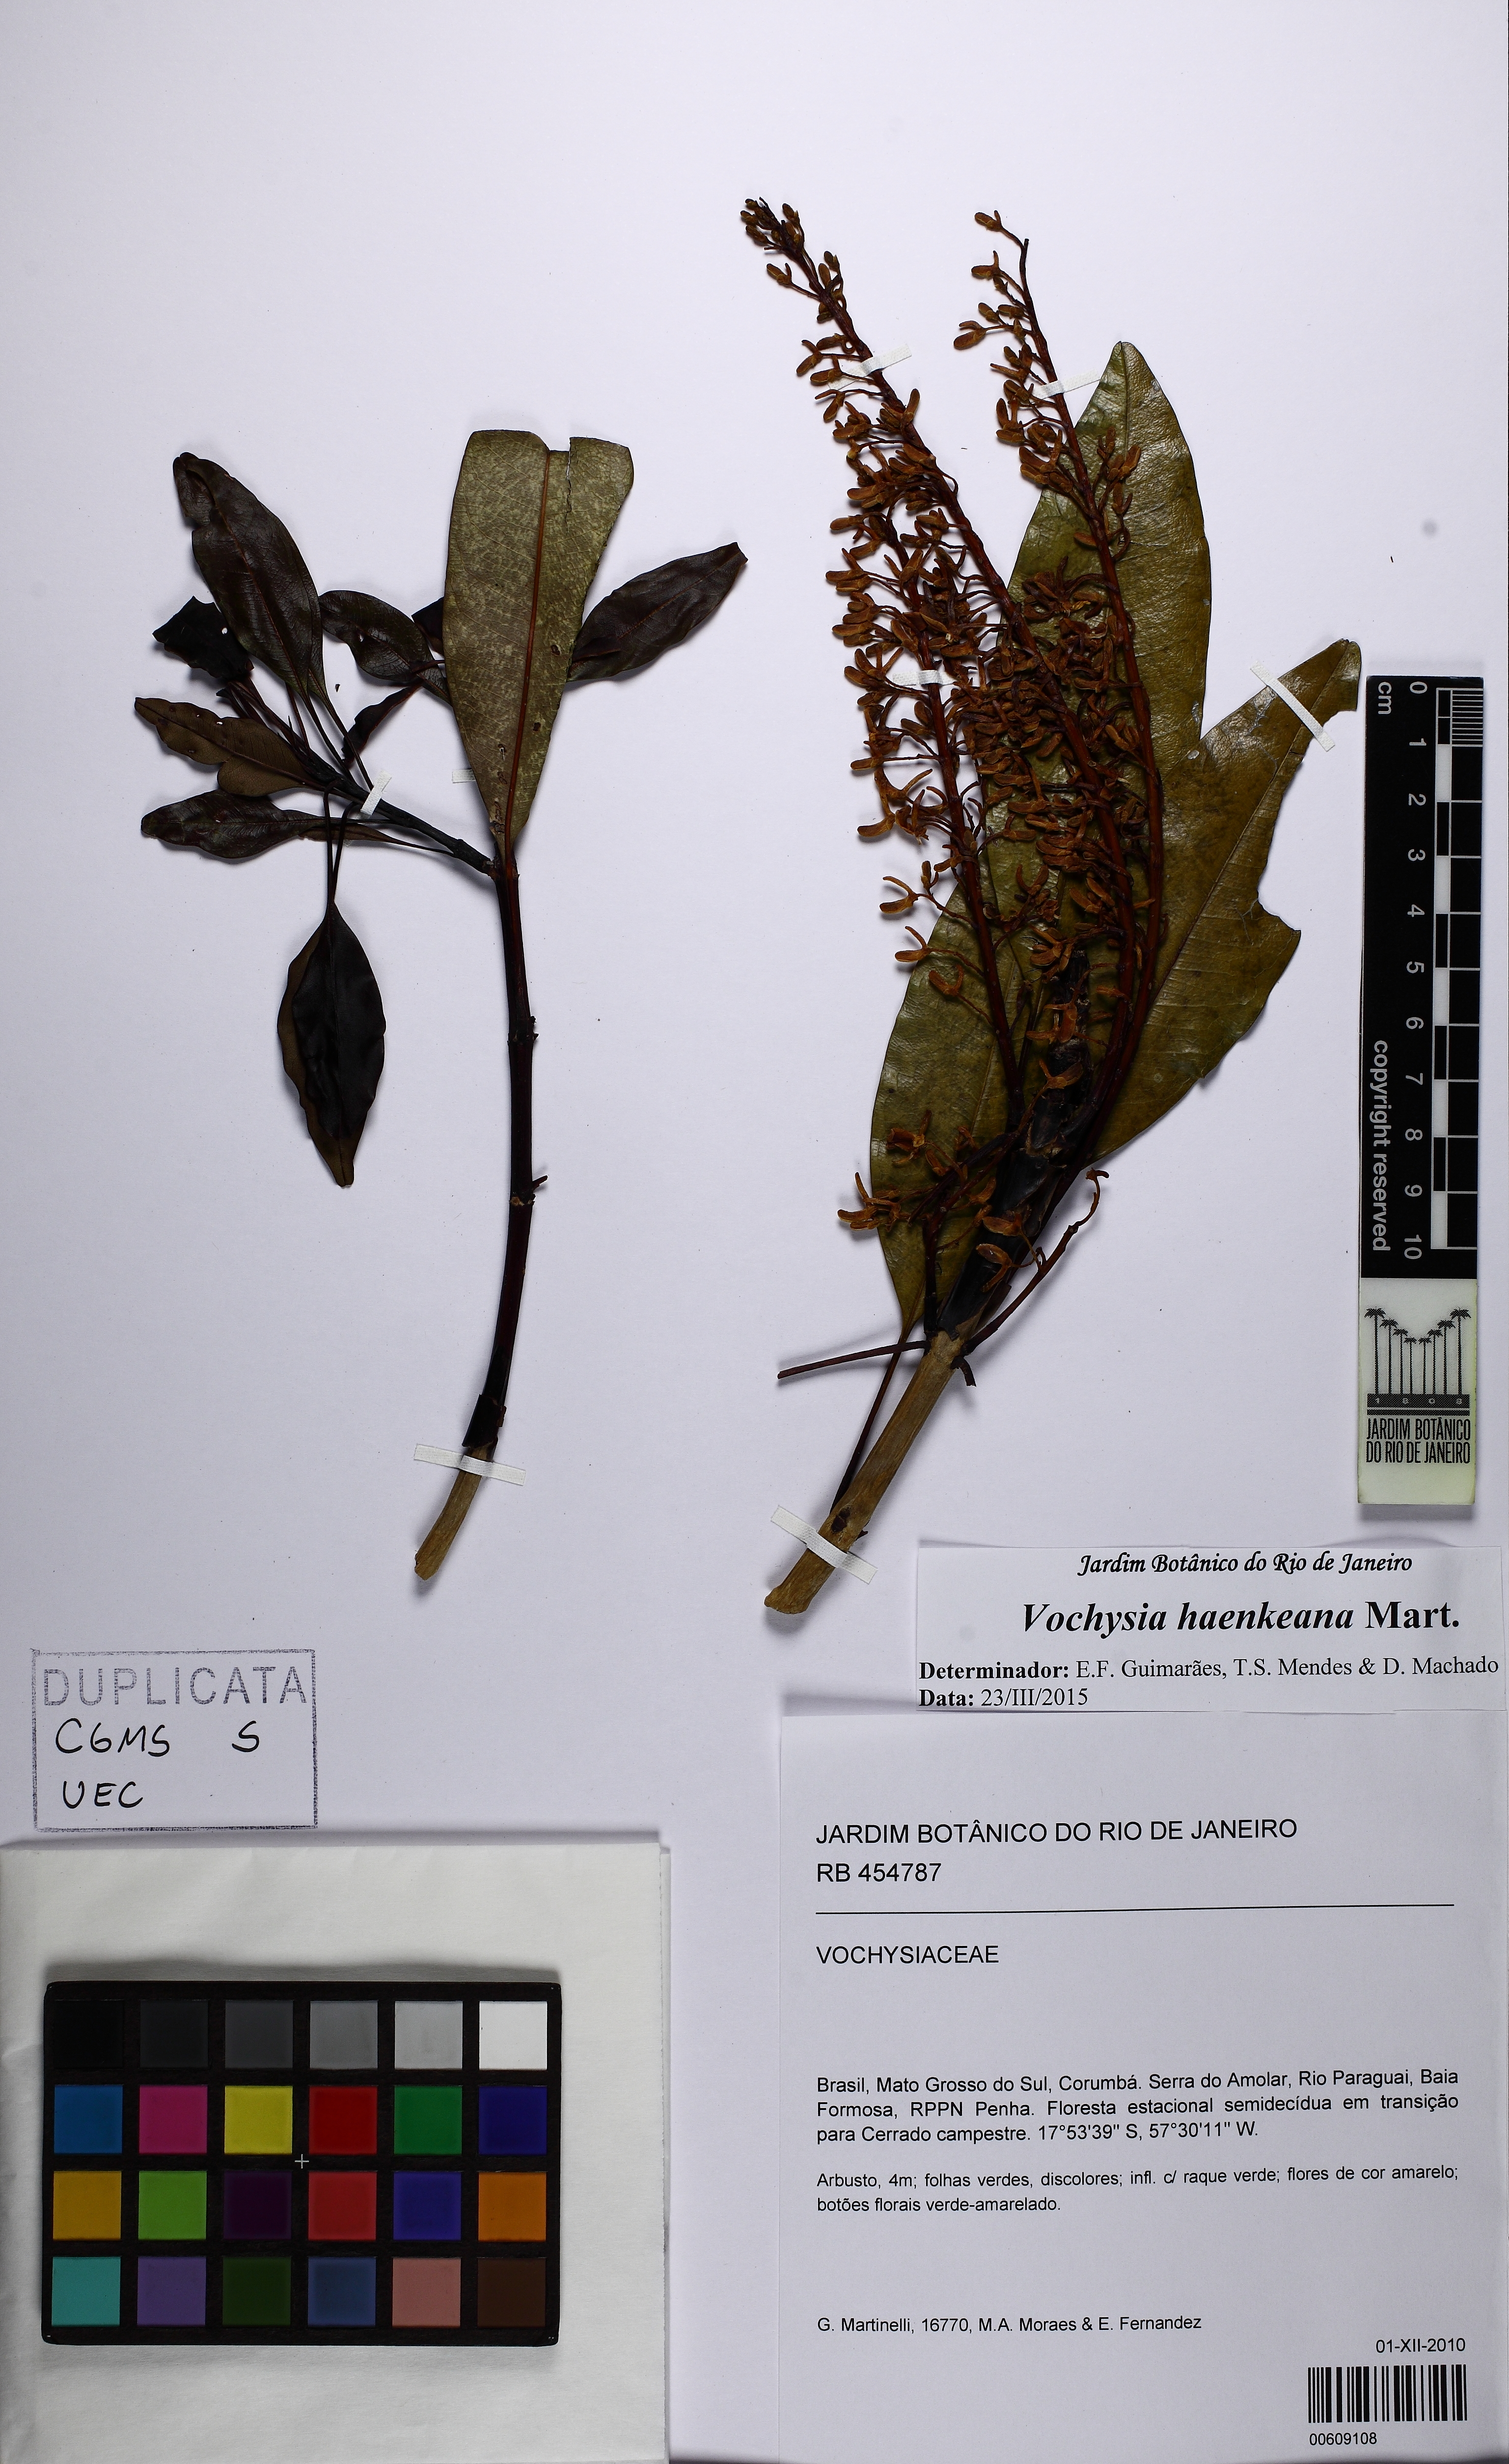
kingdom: Plantae
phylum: Tracheophyta
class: Magnoliopsida
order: Myrtales
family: Vochysiaceae
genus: Vochysia
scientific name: Vochysia haenkeana
